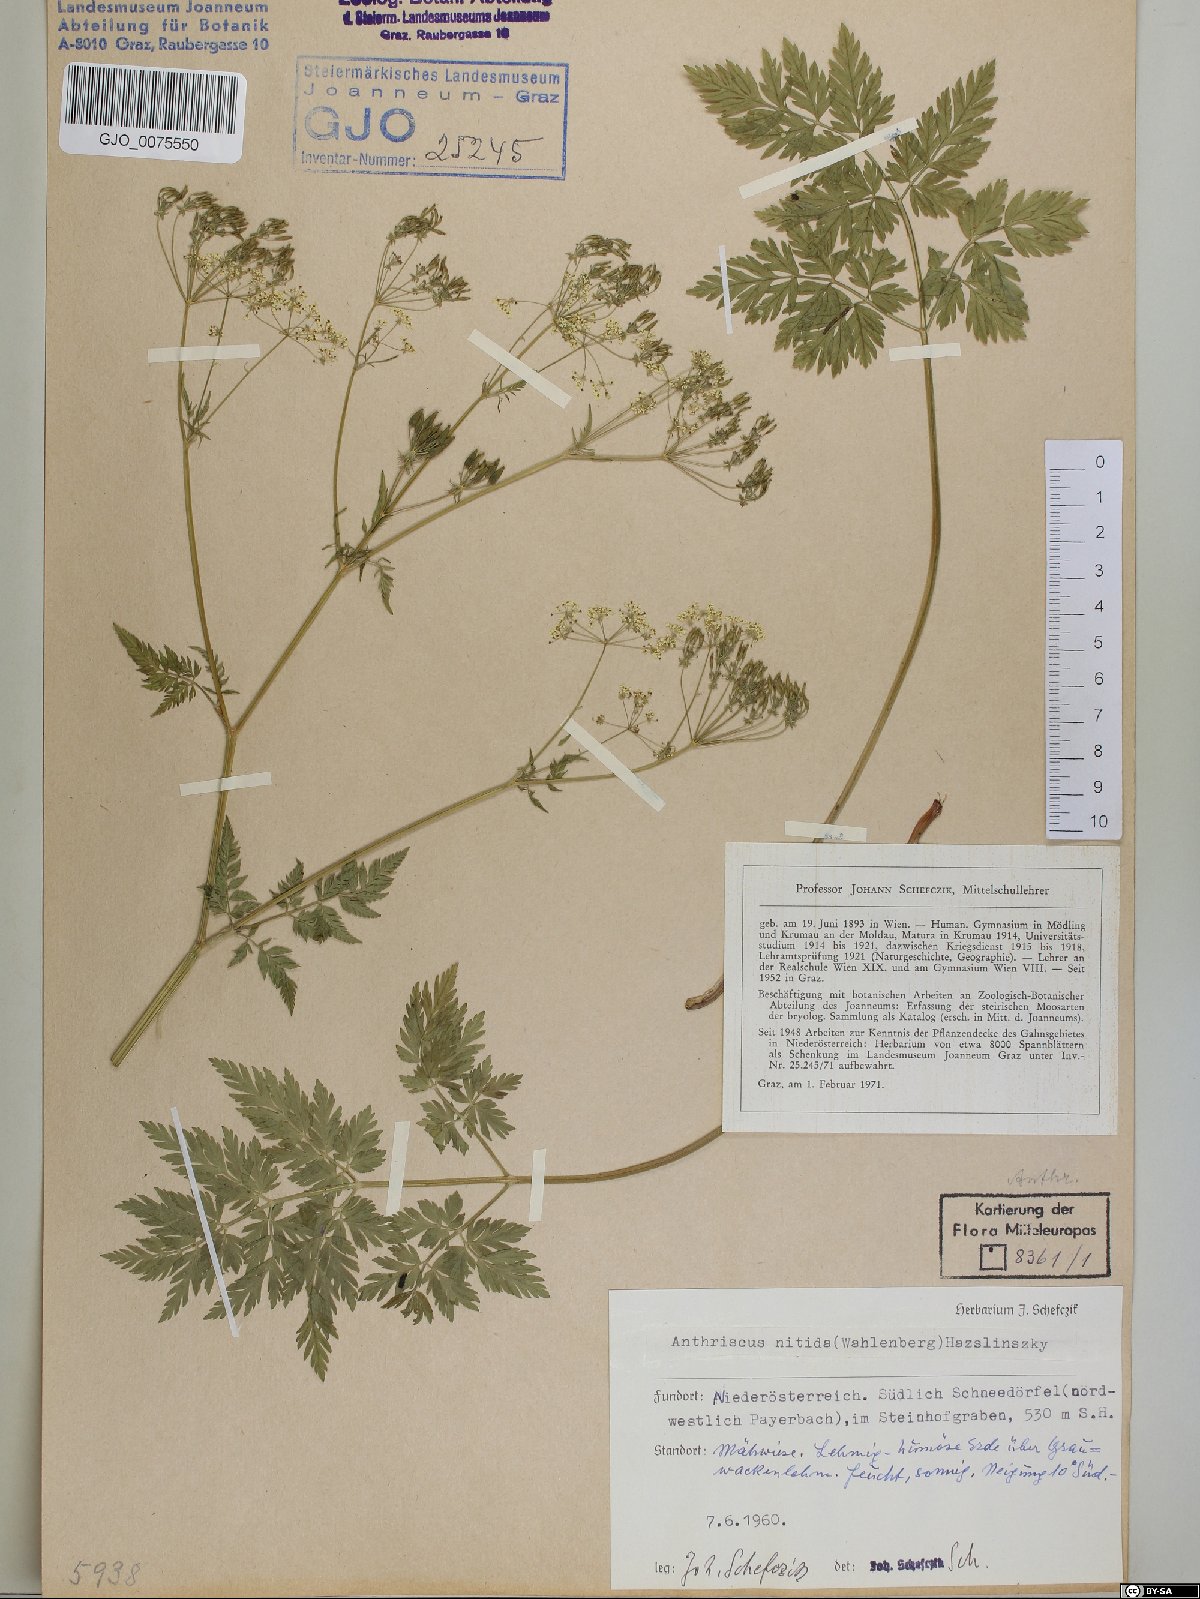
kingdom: Plantae
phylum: Tracheophyta
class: Magnoliopsida
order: Apiales
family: Apiaceae
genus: Anthriscus
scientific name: Anthriscus nitida
